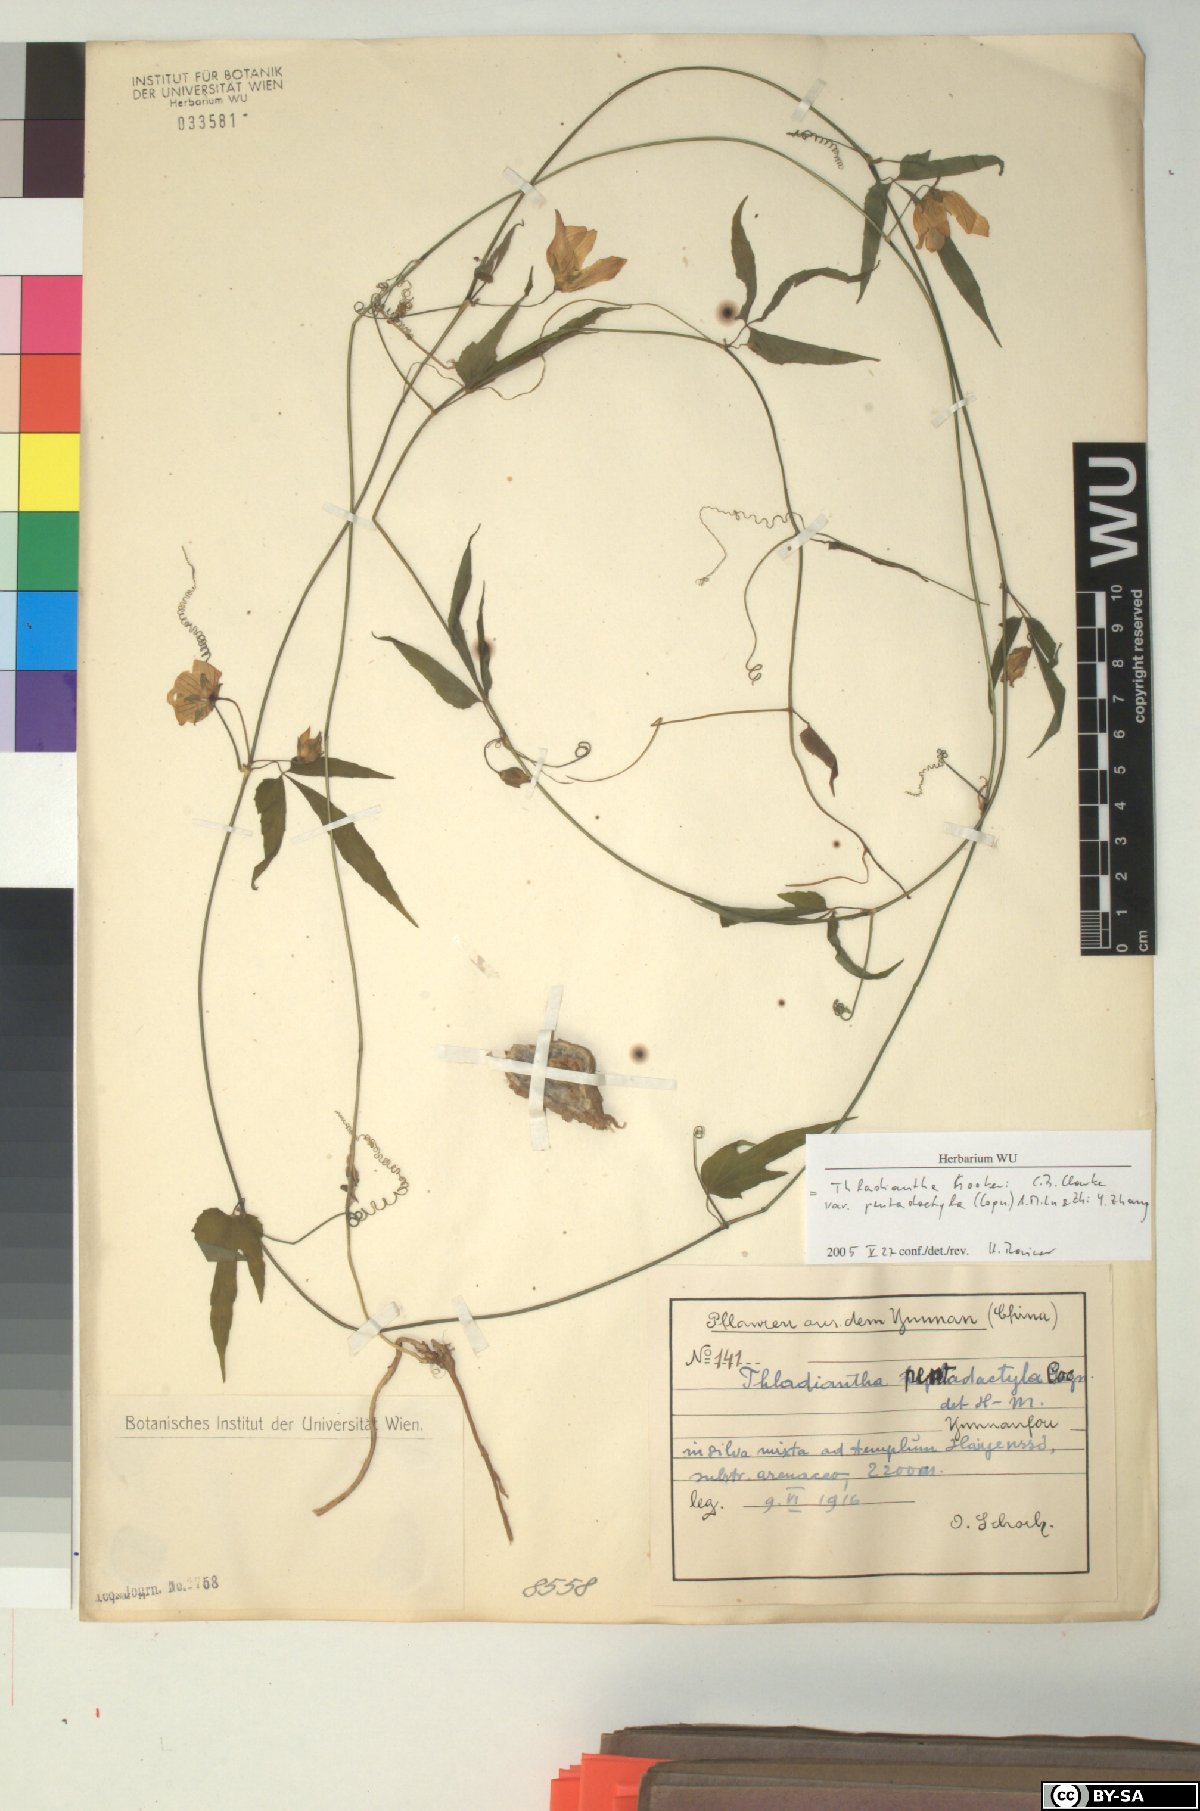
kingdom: Plantae
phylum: Tracheophyta
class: Magnoliopsida
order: Cucurbitales
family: Cucurbitaceae
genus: Thladiantha
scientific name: Thladiantha hookeri
